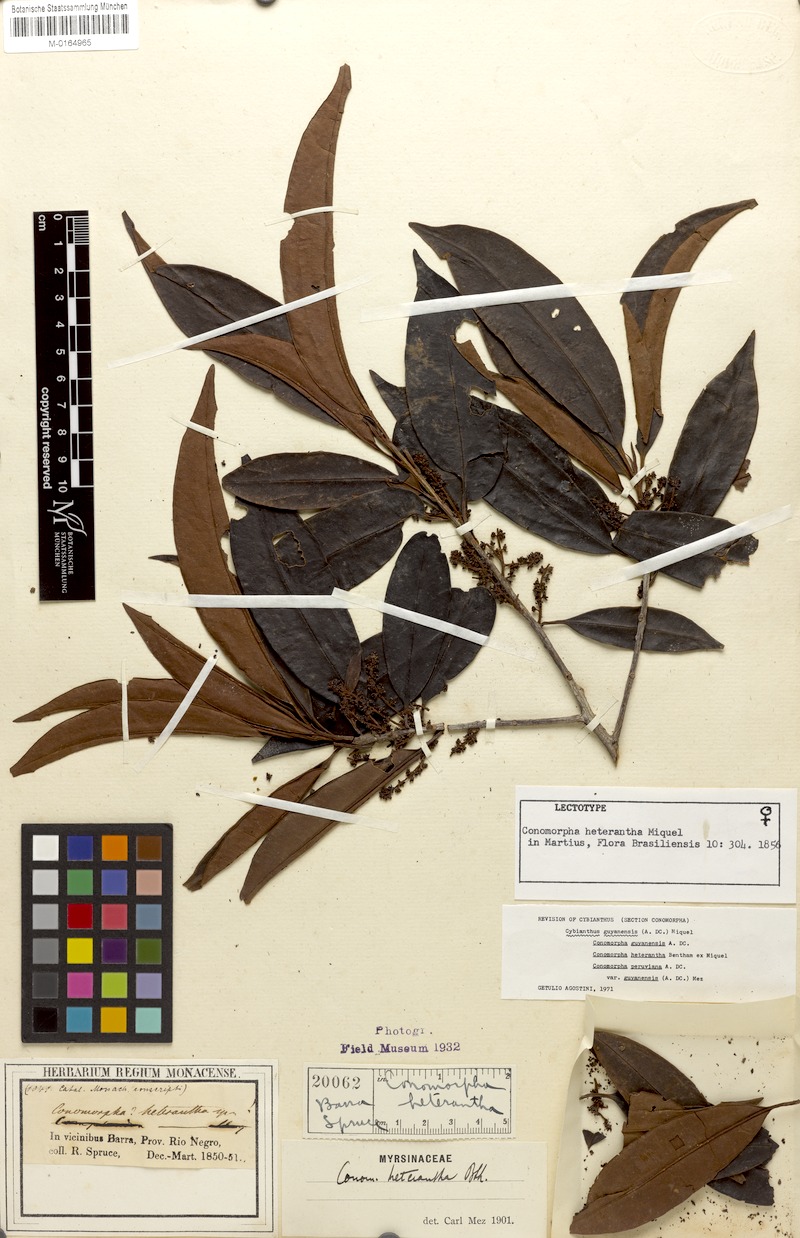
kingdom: Plantae
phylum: Tracheophyta
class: Magnoliopsida
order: Ericales
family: Primulaceae
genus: Cybianthus
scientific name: Cybianthus guyanensis
